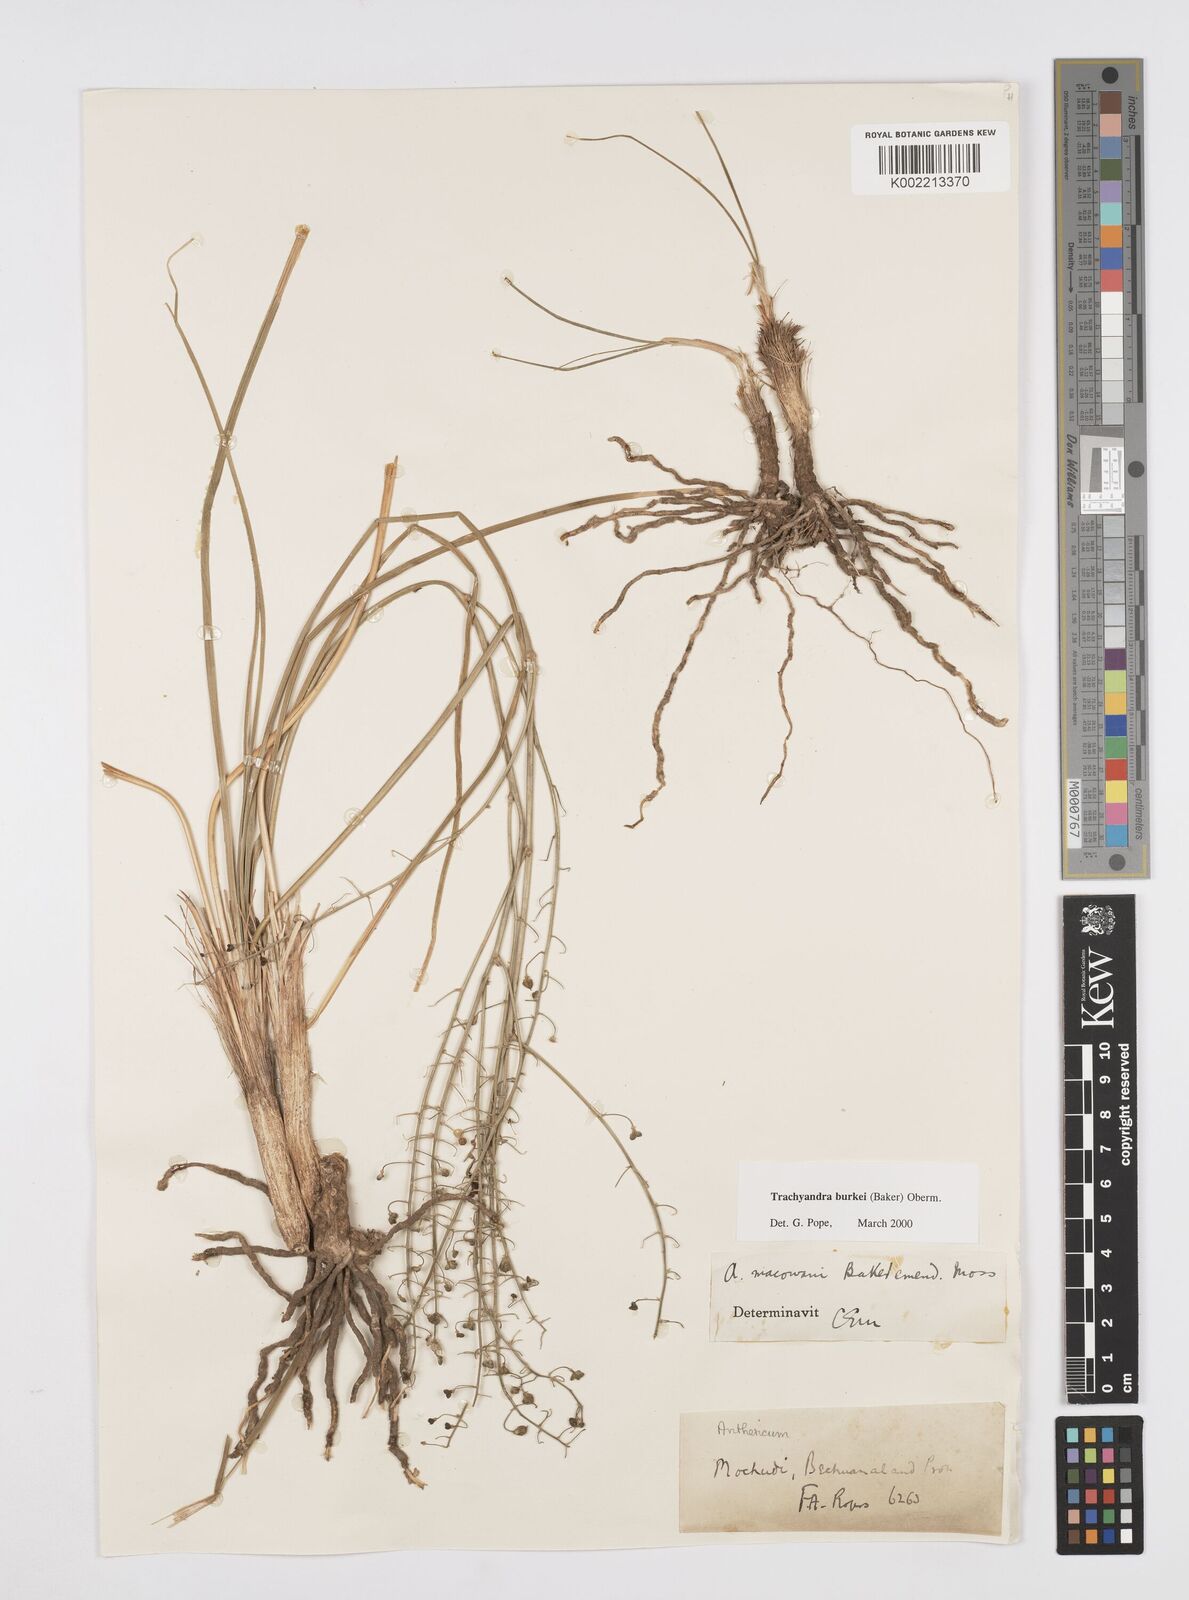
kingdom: Plantae
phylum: Tracheophyta
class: Liliopsida
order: Asparagales
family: Asphodelaceae
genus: Trachyandra
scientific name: Trachyandra burkei
